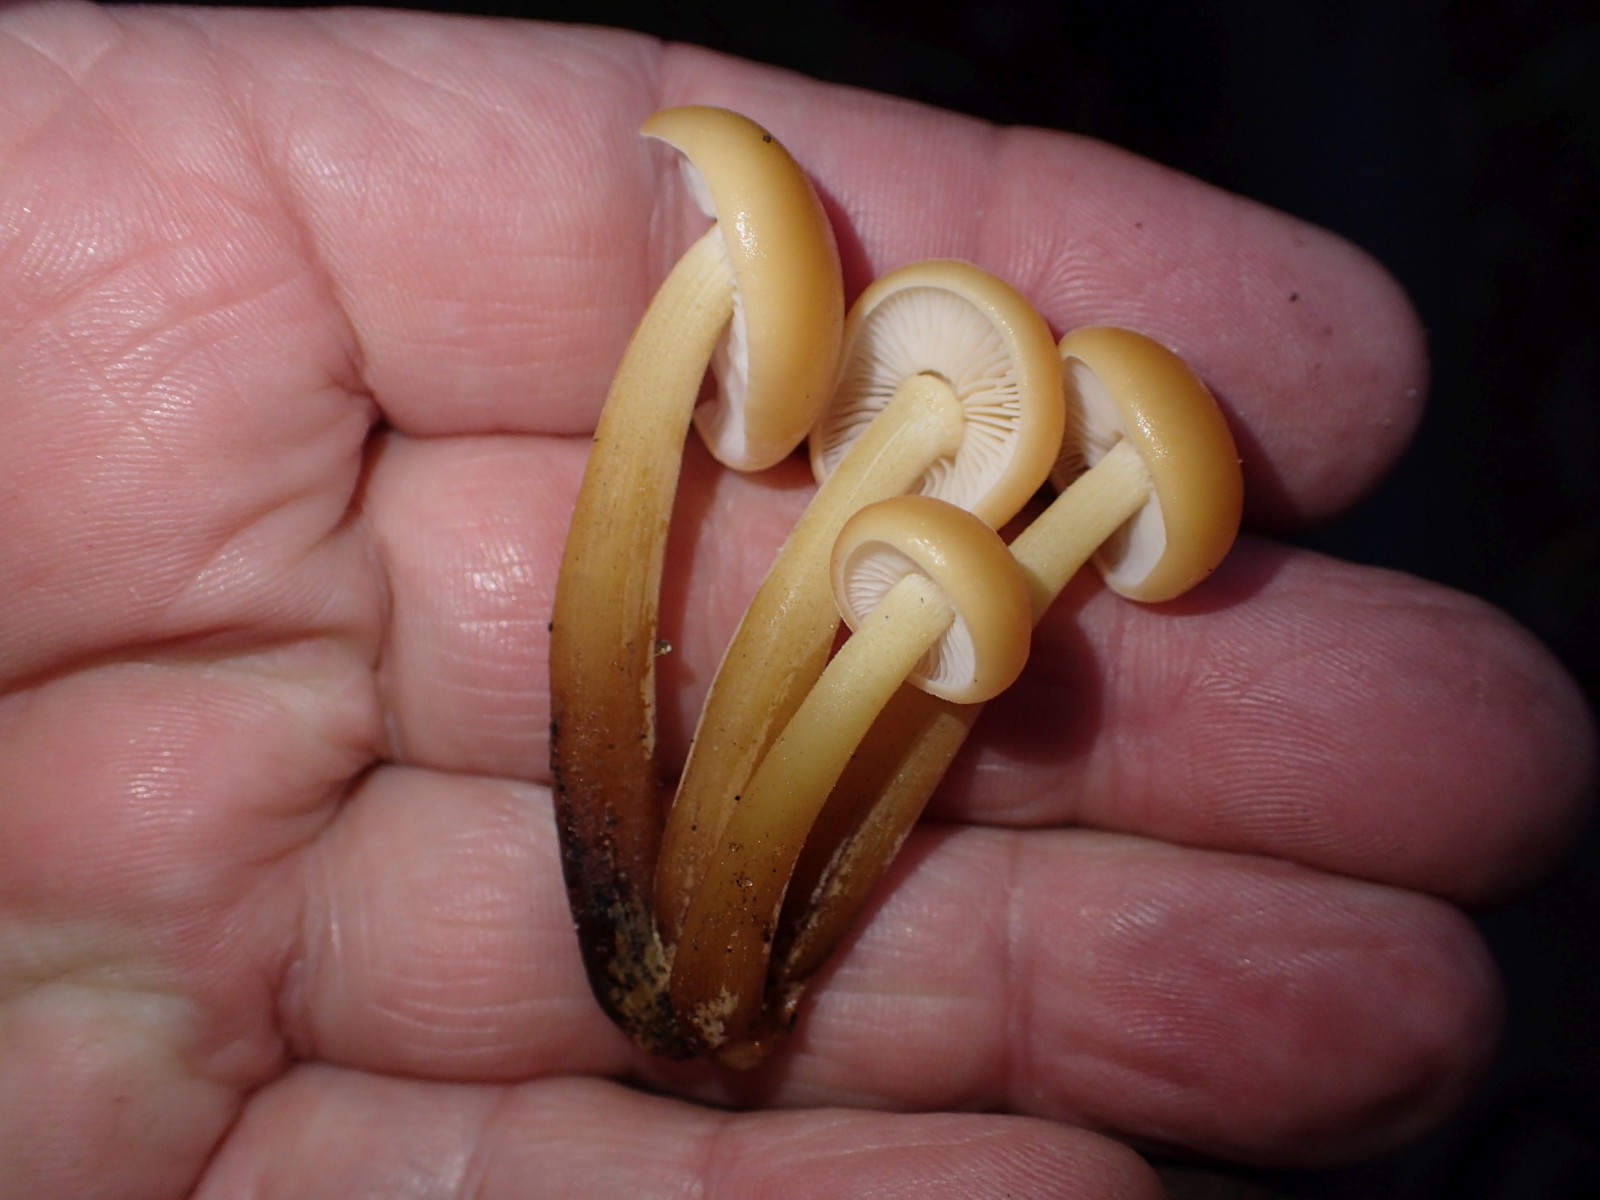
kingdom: Fungi
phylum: Basidiomycota
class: Agaricomycetes
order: Agaricales
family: Physalacriaceae
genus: Flammulina
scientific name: Flammulina velutipes
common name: gul fløjlsfod
